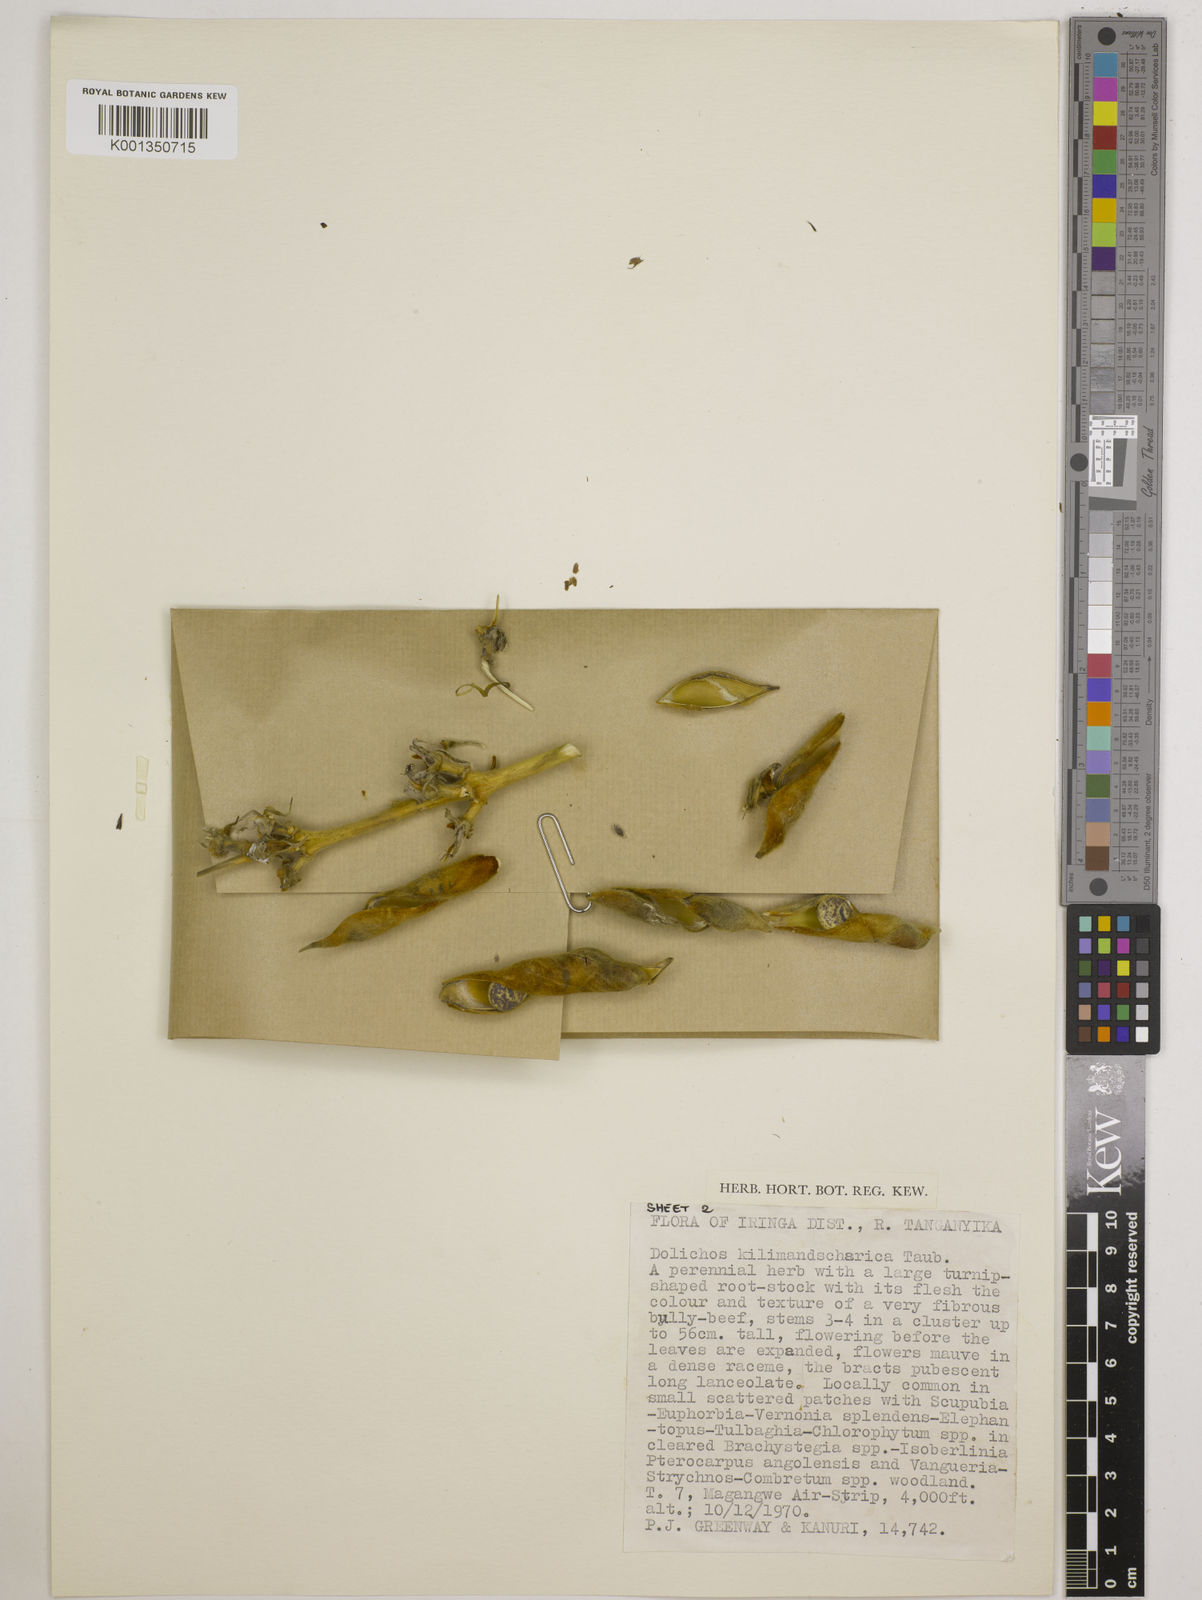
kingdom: Plantae
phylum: Tracheophyta
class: Magnoliopsida
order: Fabales
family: Fabaceae
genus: Dolichos
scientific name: Dolichos kilimandscharicus
